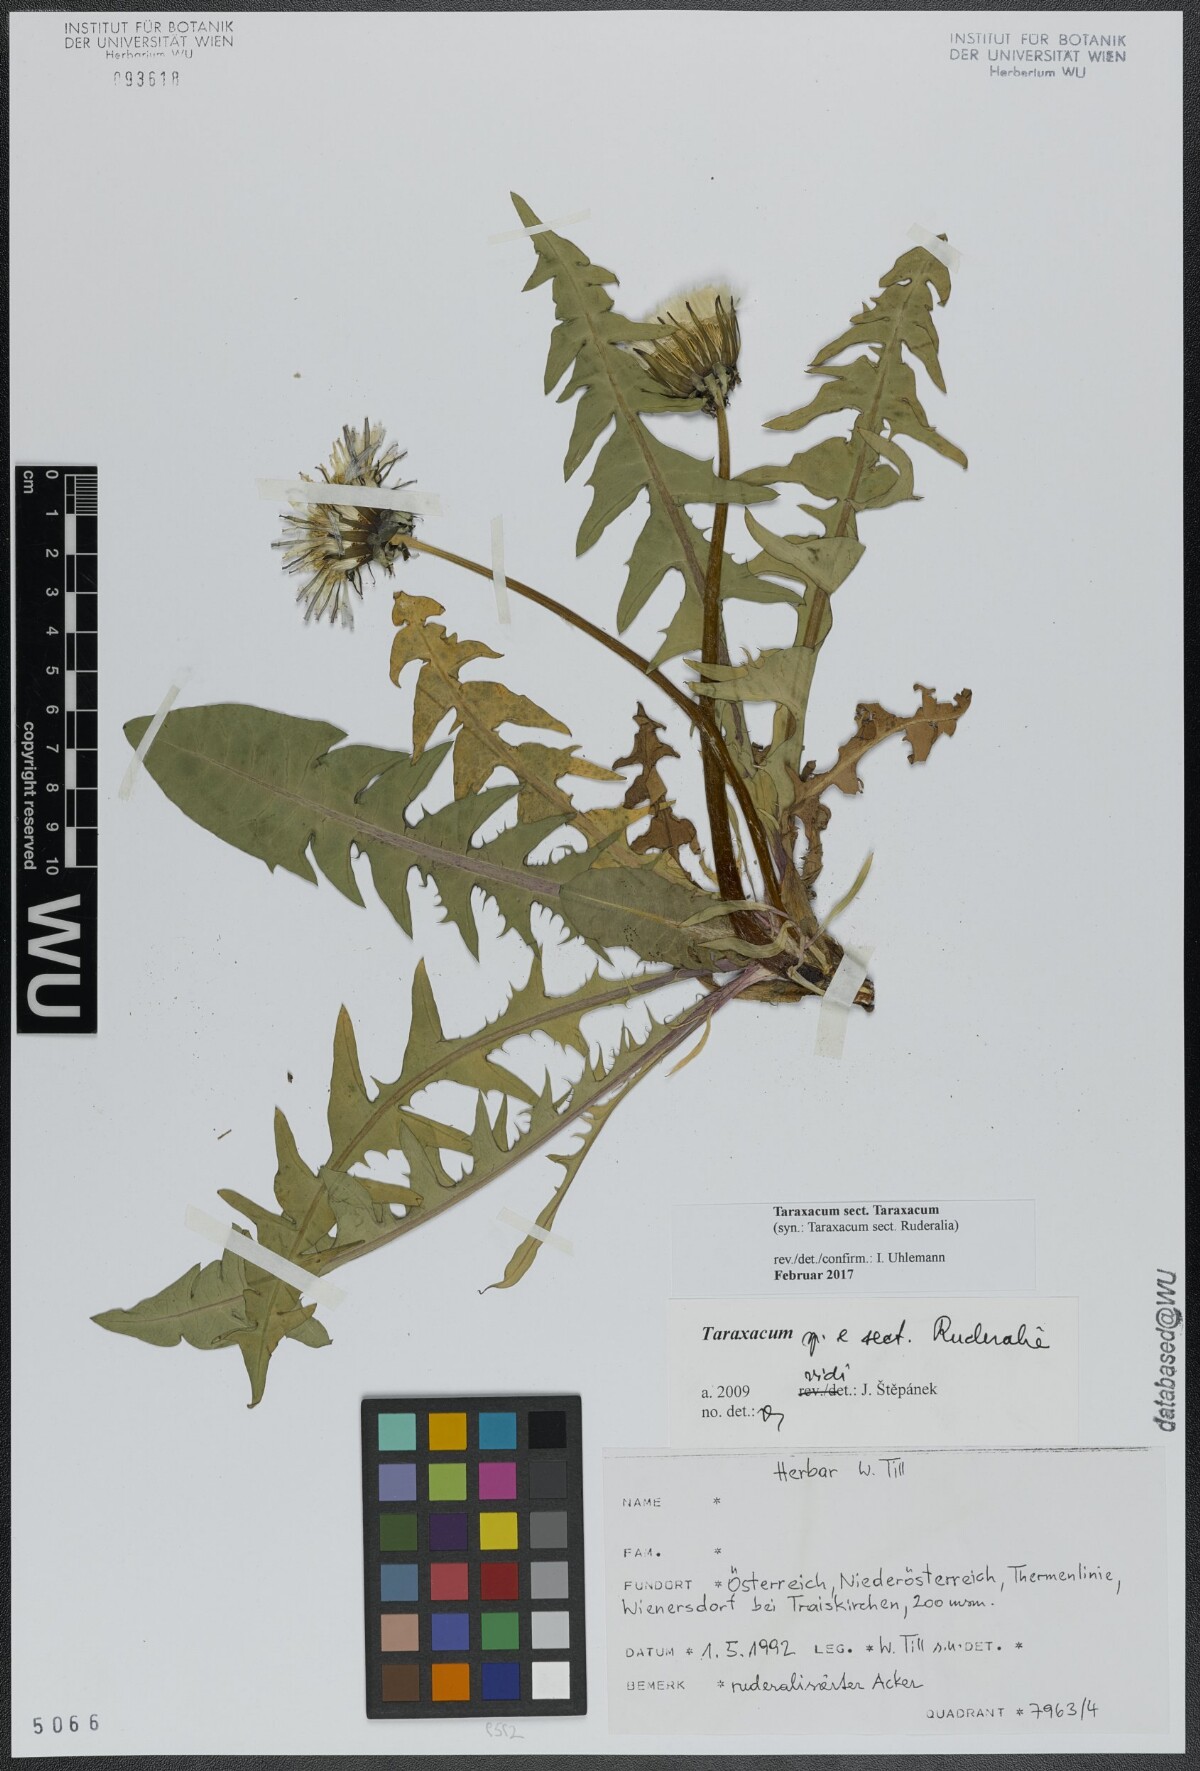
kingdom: Plantae
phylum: Tracheophyta
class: Magnoliopsida
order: Asterales
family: Asteraceae
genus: Taraxacum
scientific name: Taraxacum
